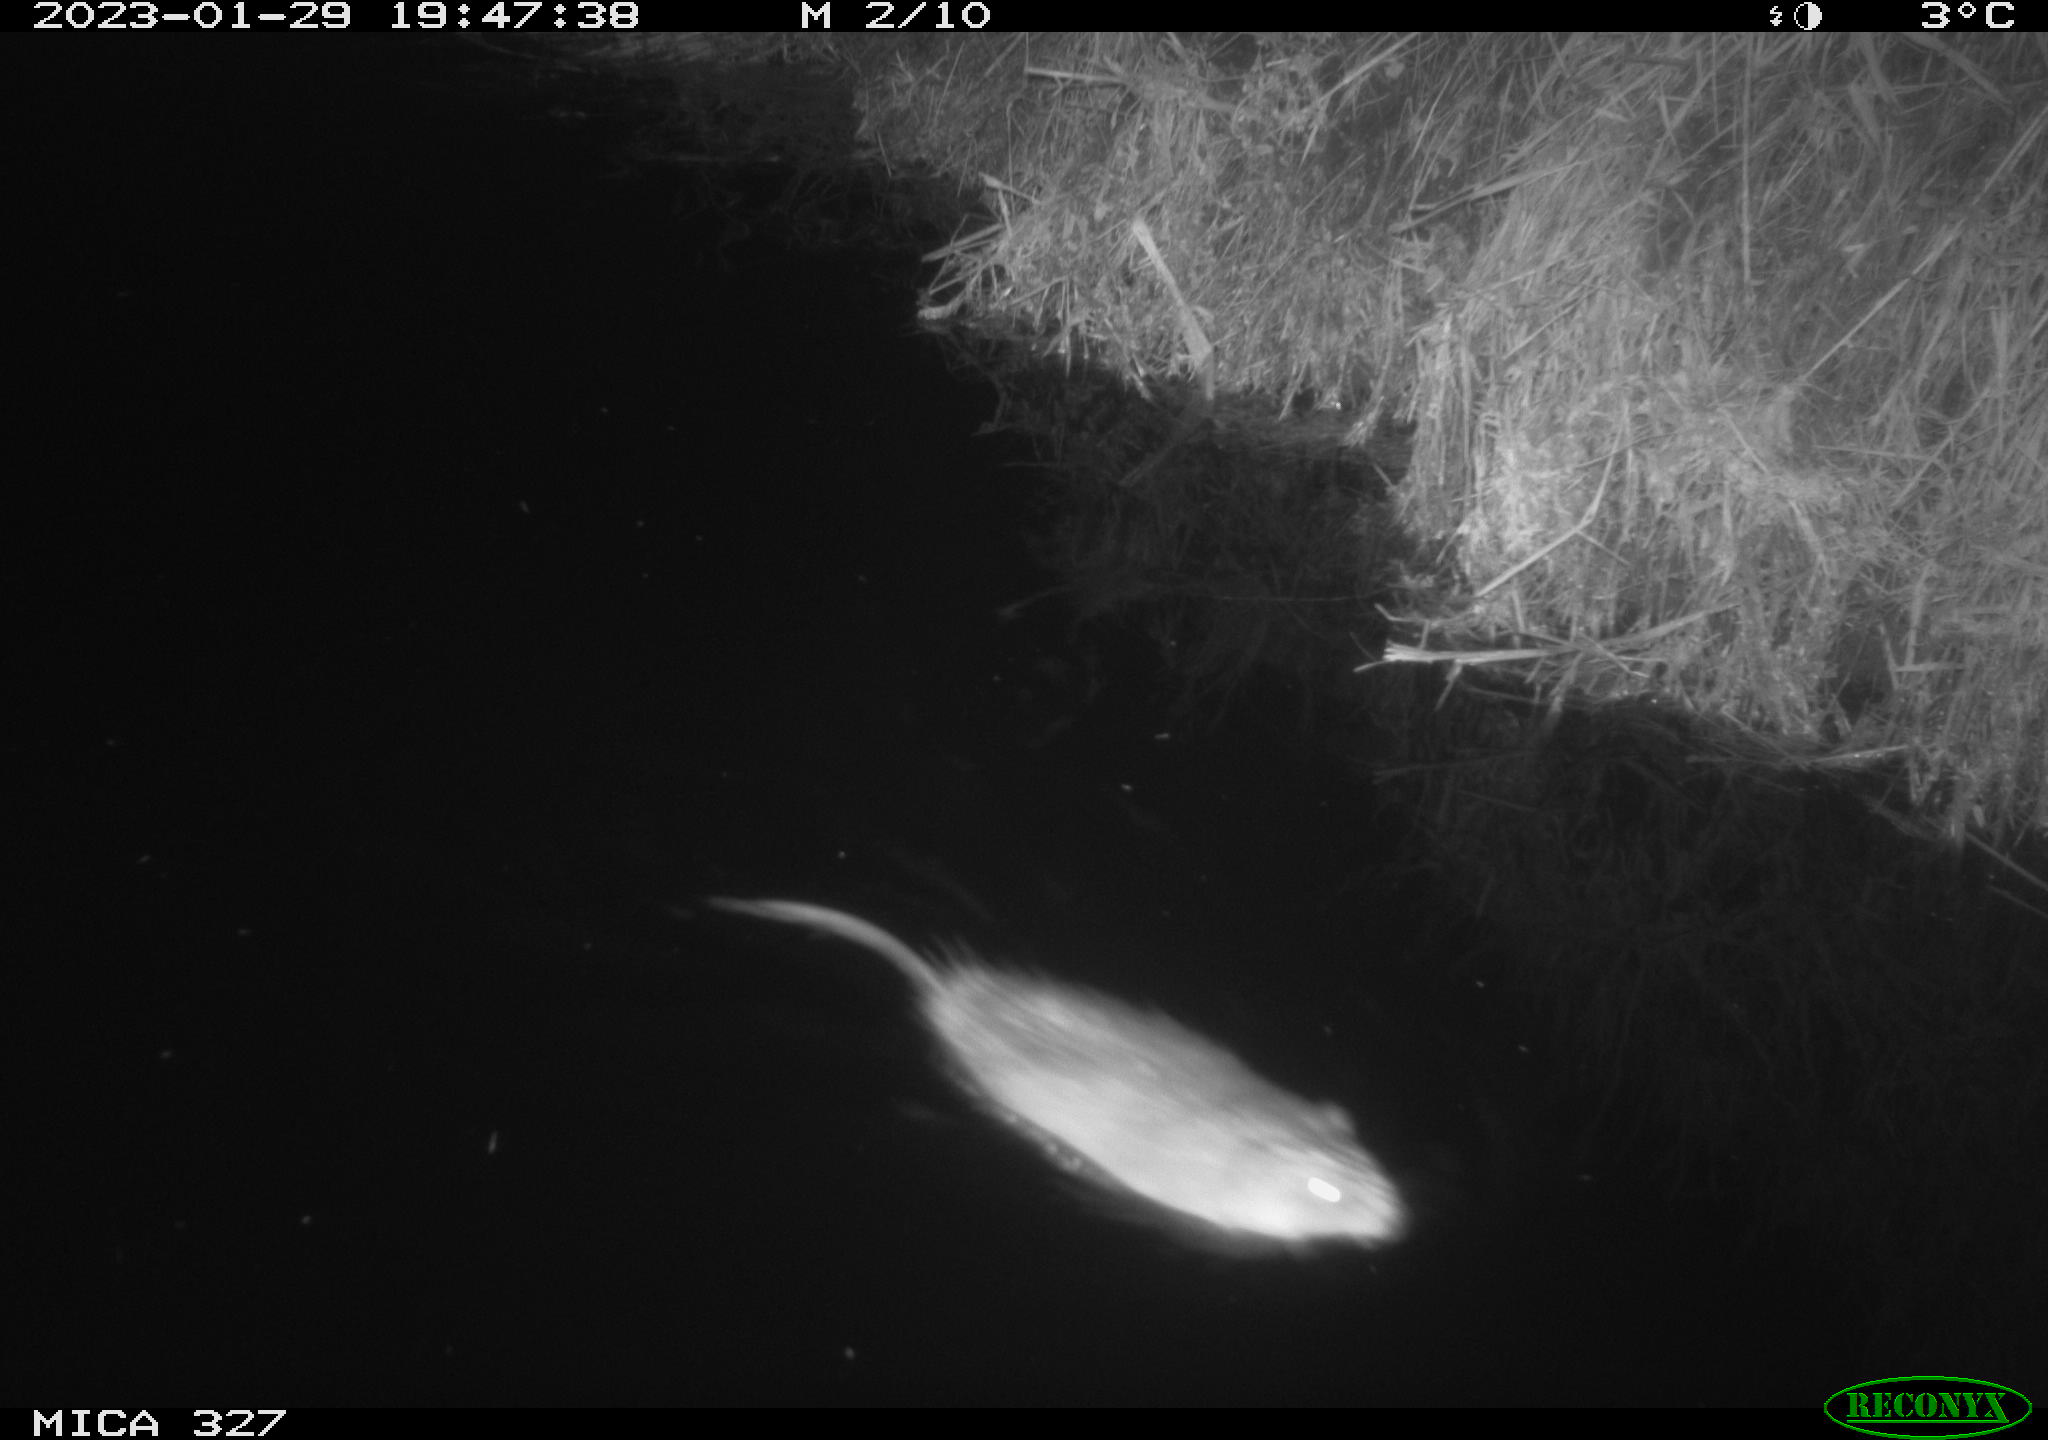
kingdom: Animalia
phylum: Chordata
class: Mammalia
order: Rodentia
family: Cricetidae
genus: Ondatra
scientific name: Ondatra zibethicus
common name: Muskrat
